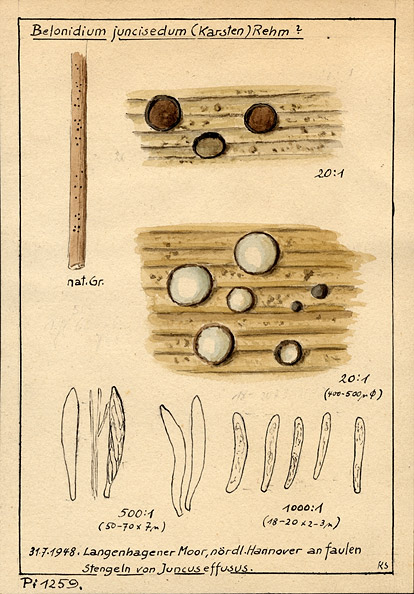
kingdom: Fungi
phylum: Ascomycota
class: Leotiomycetes
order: Helotiales
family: Mollisiaceae
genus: Belonopsis
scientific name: Belonopsis junciseda
